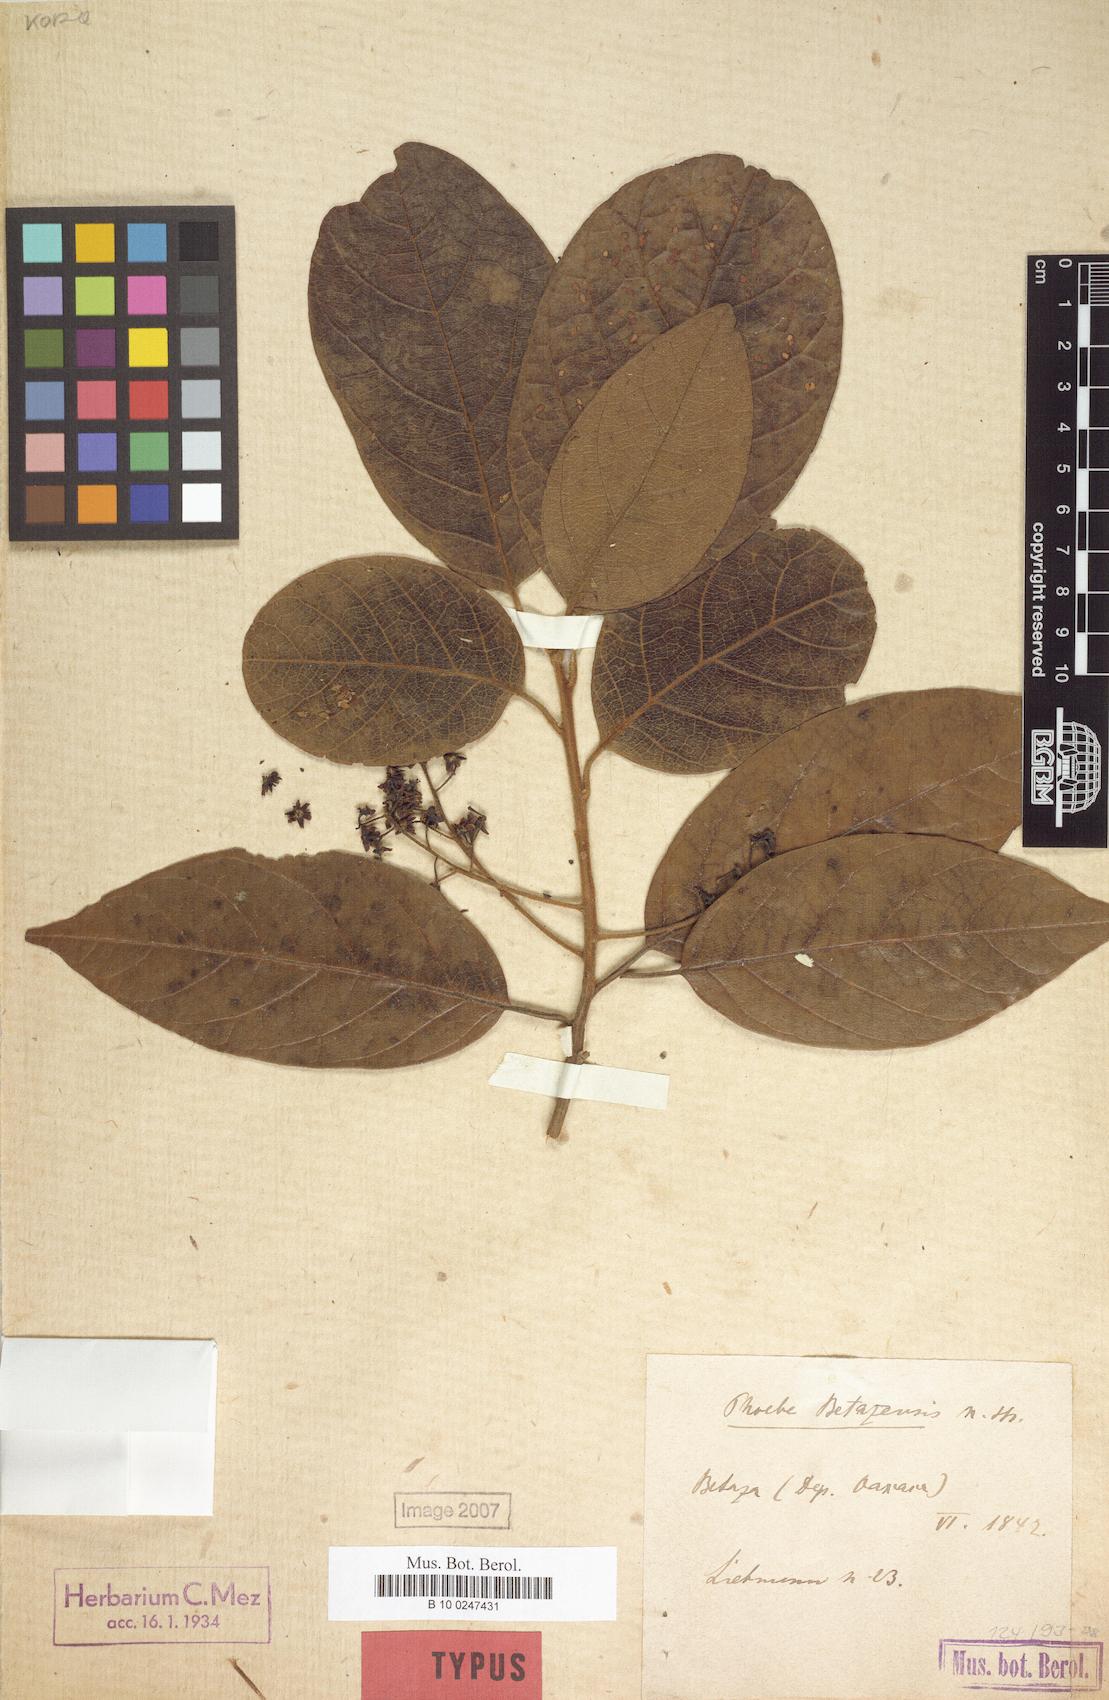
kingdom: Plantae
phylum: Tracheophyta
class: Magnoliopsida
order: Laurales
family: Lauraceae
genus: Ocotea
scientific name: Ocotea betazensis
